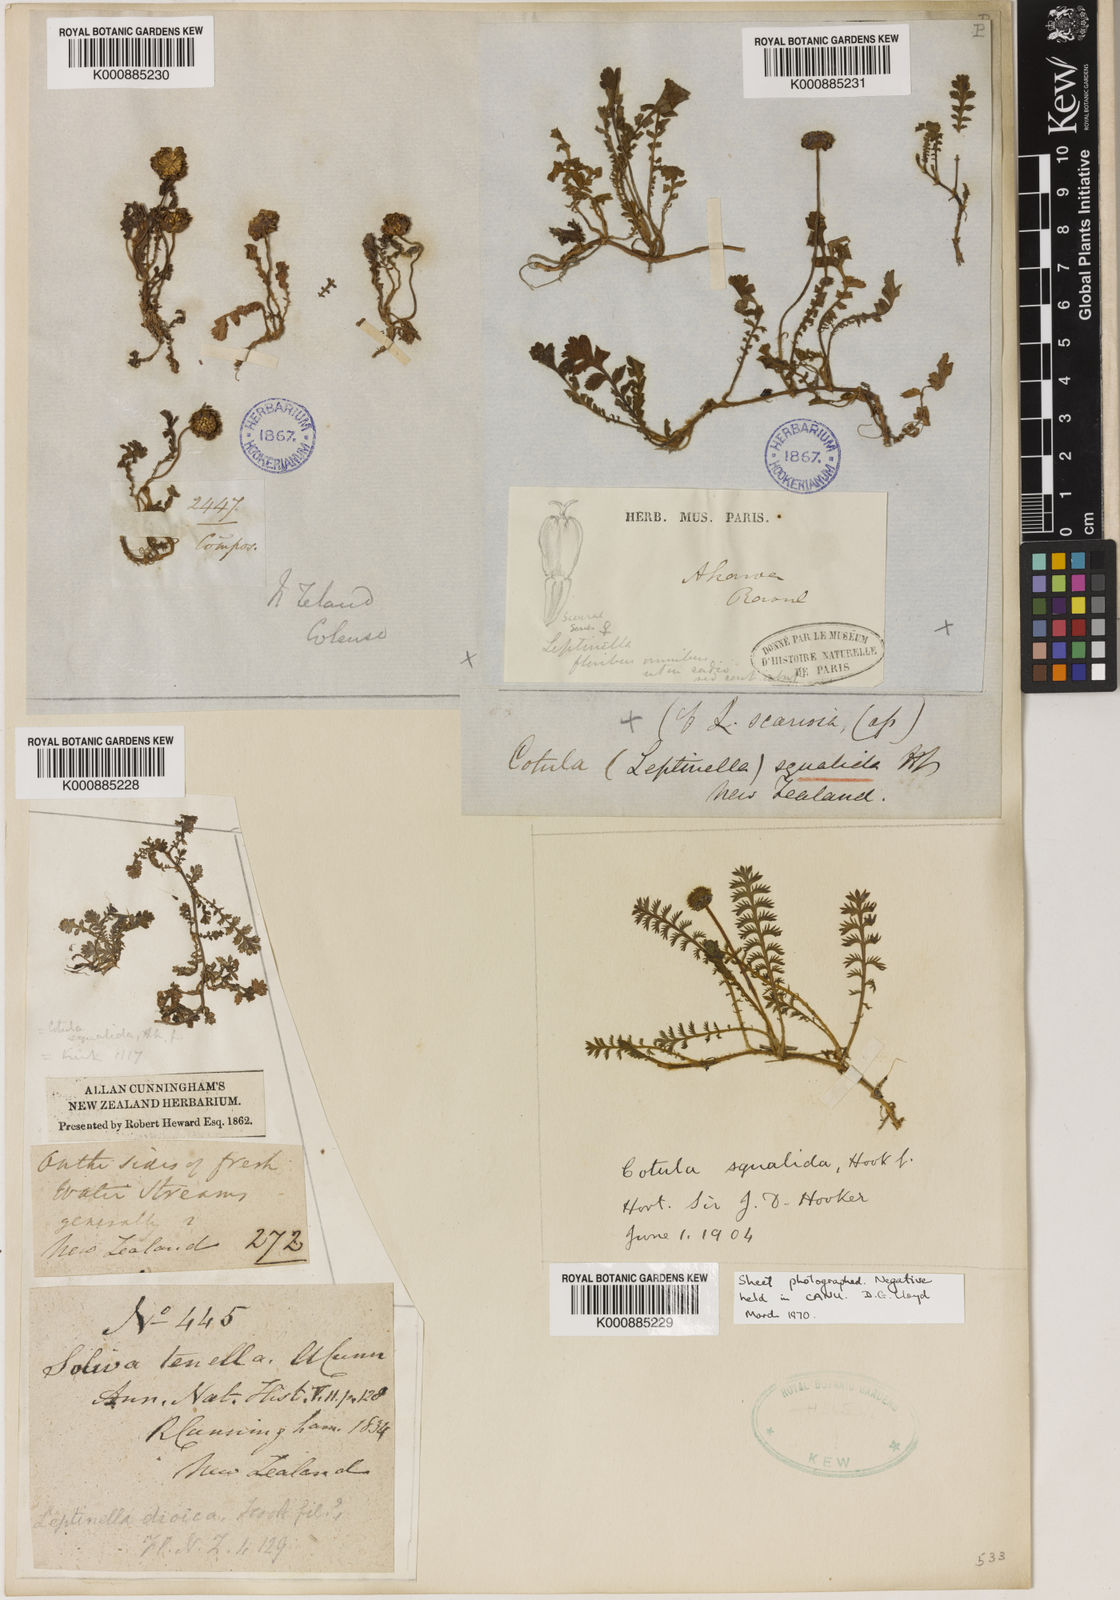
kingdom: Plantae
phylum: Tracheophyta
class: Magnoliopsida
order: Asterales
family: Asteraceae
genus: Leptinella
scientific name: Leptinella
